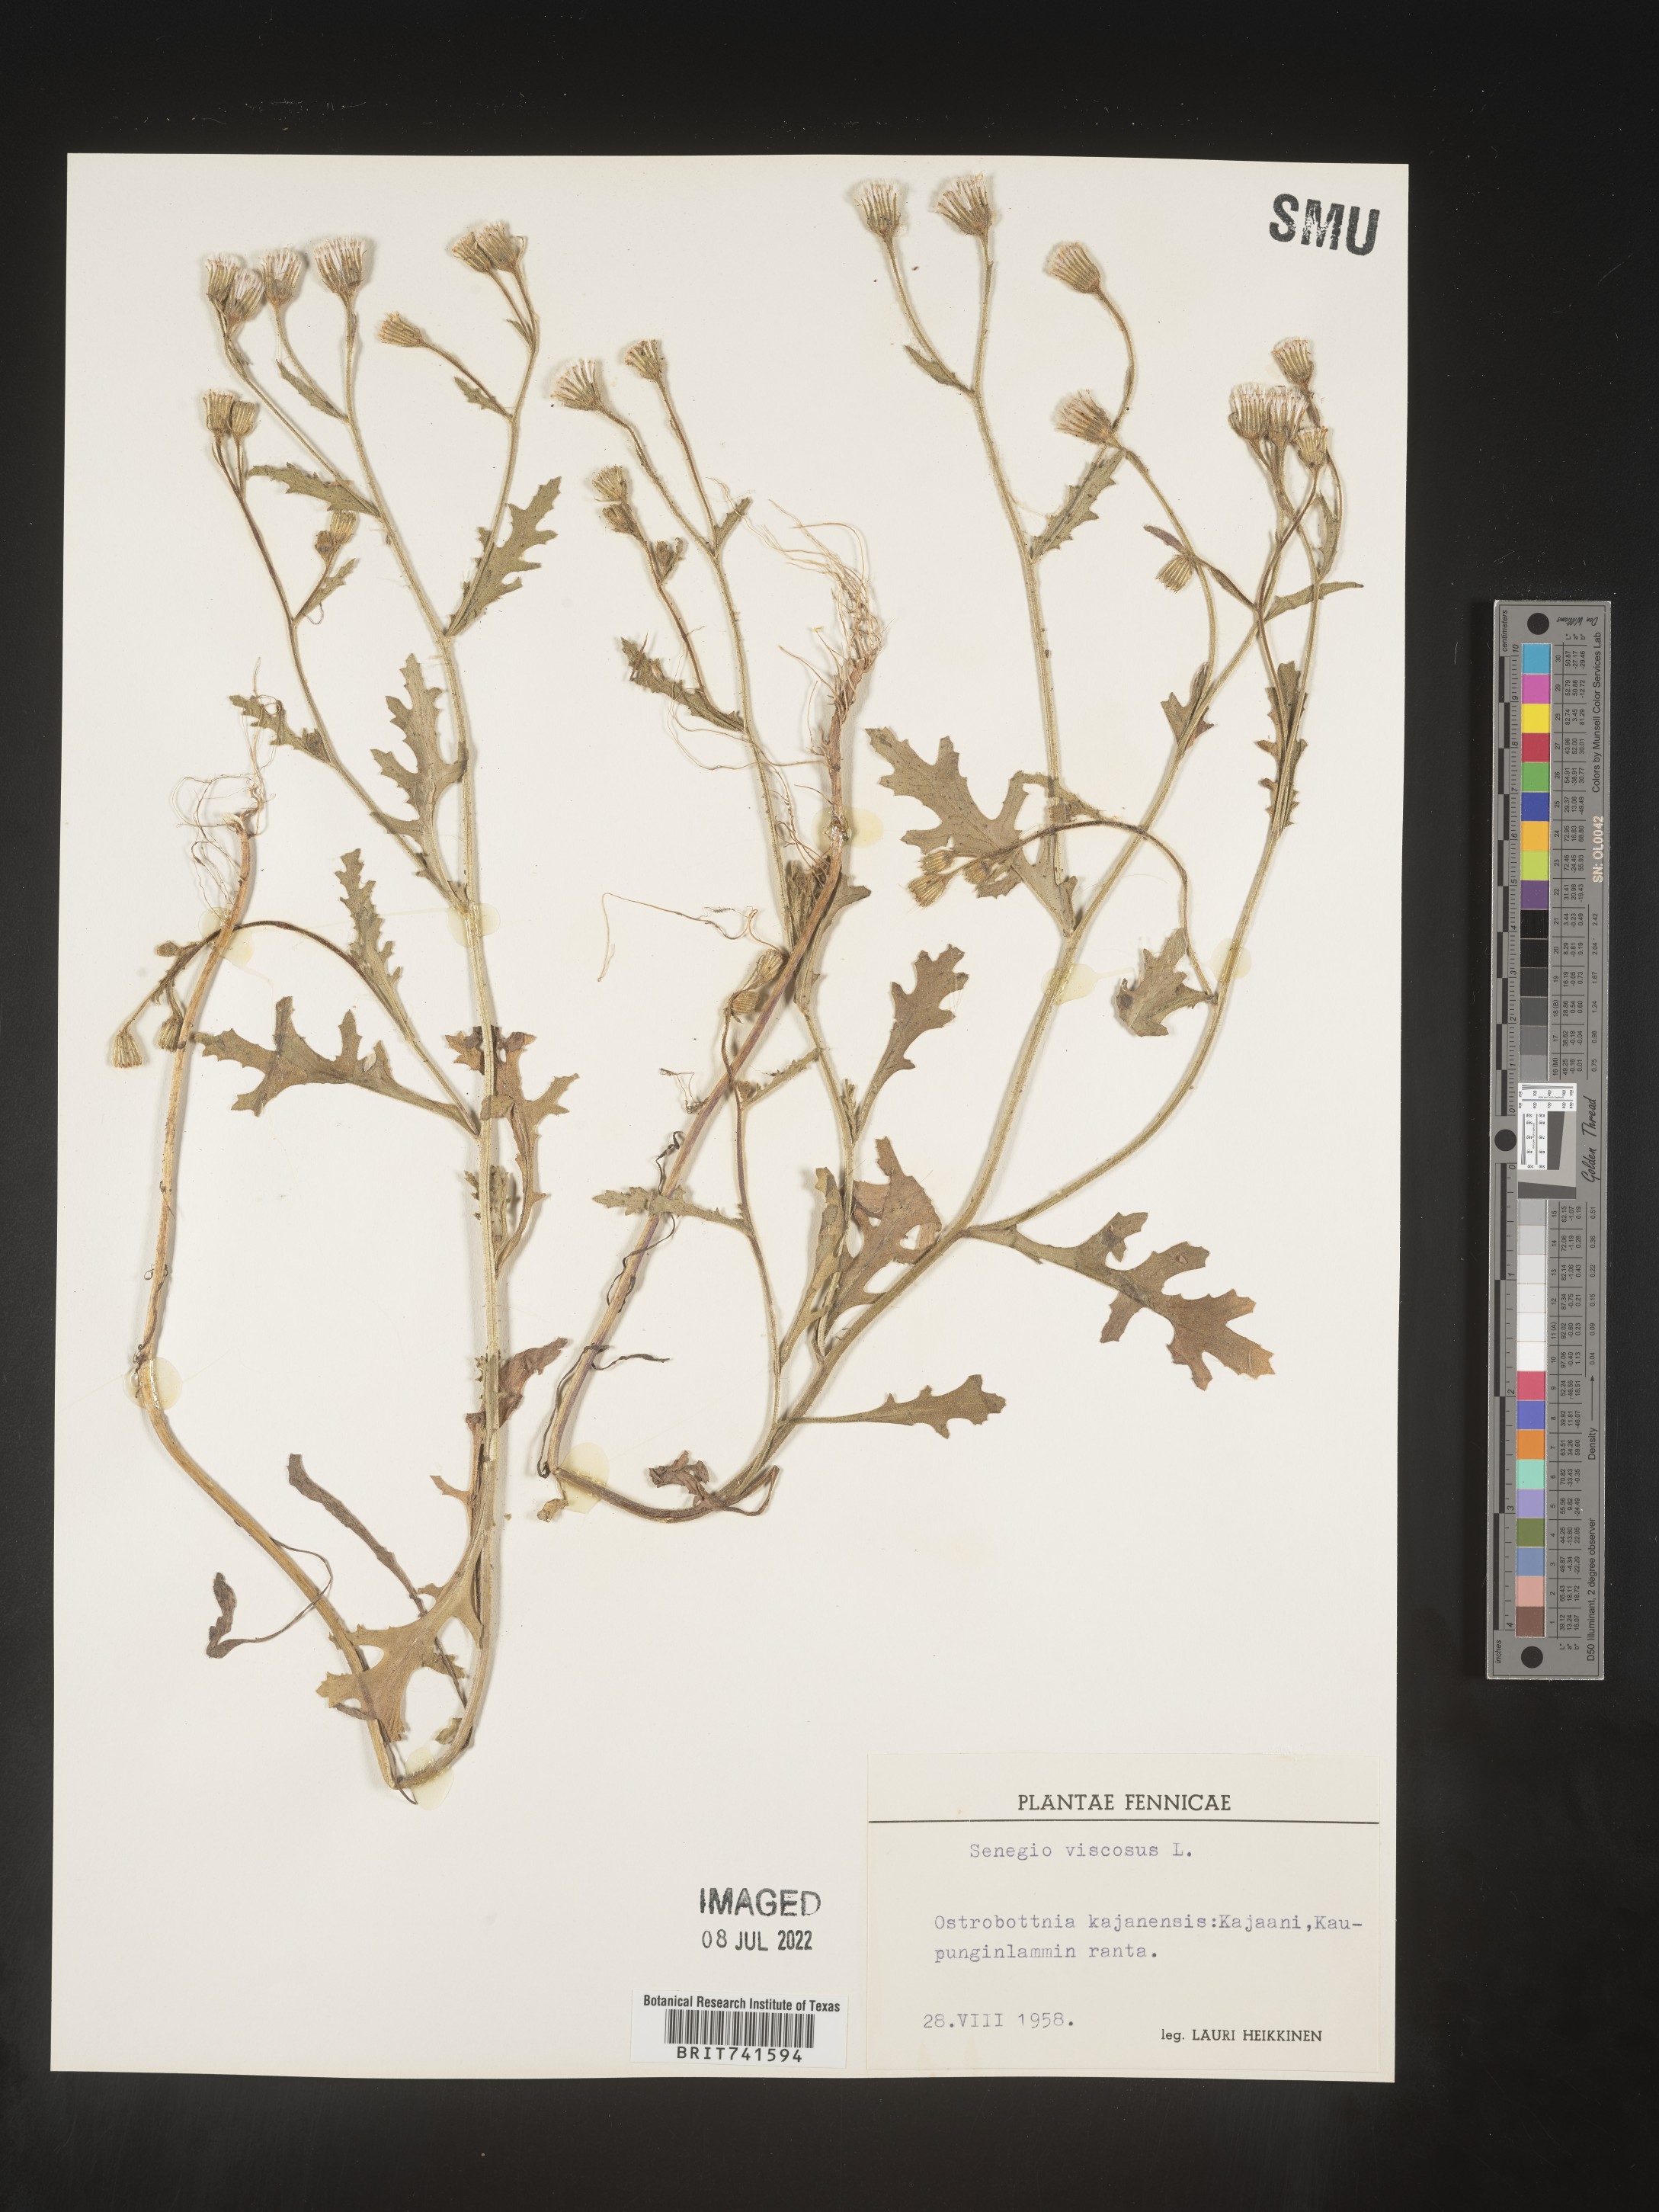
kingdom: Plantae
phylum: Tracheophyta
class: Magnoliopsida
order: Asterales
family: Asteraceae
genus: Senecio
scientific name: Senecio
